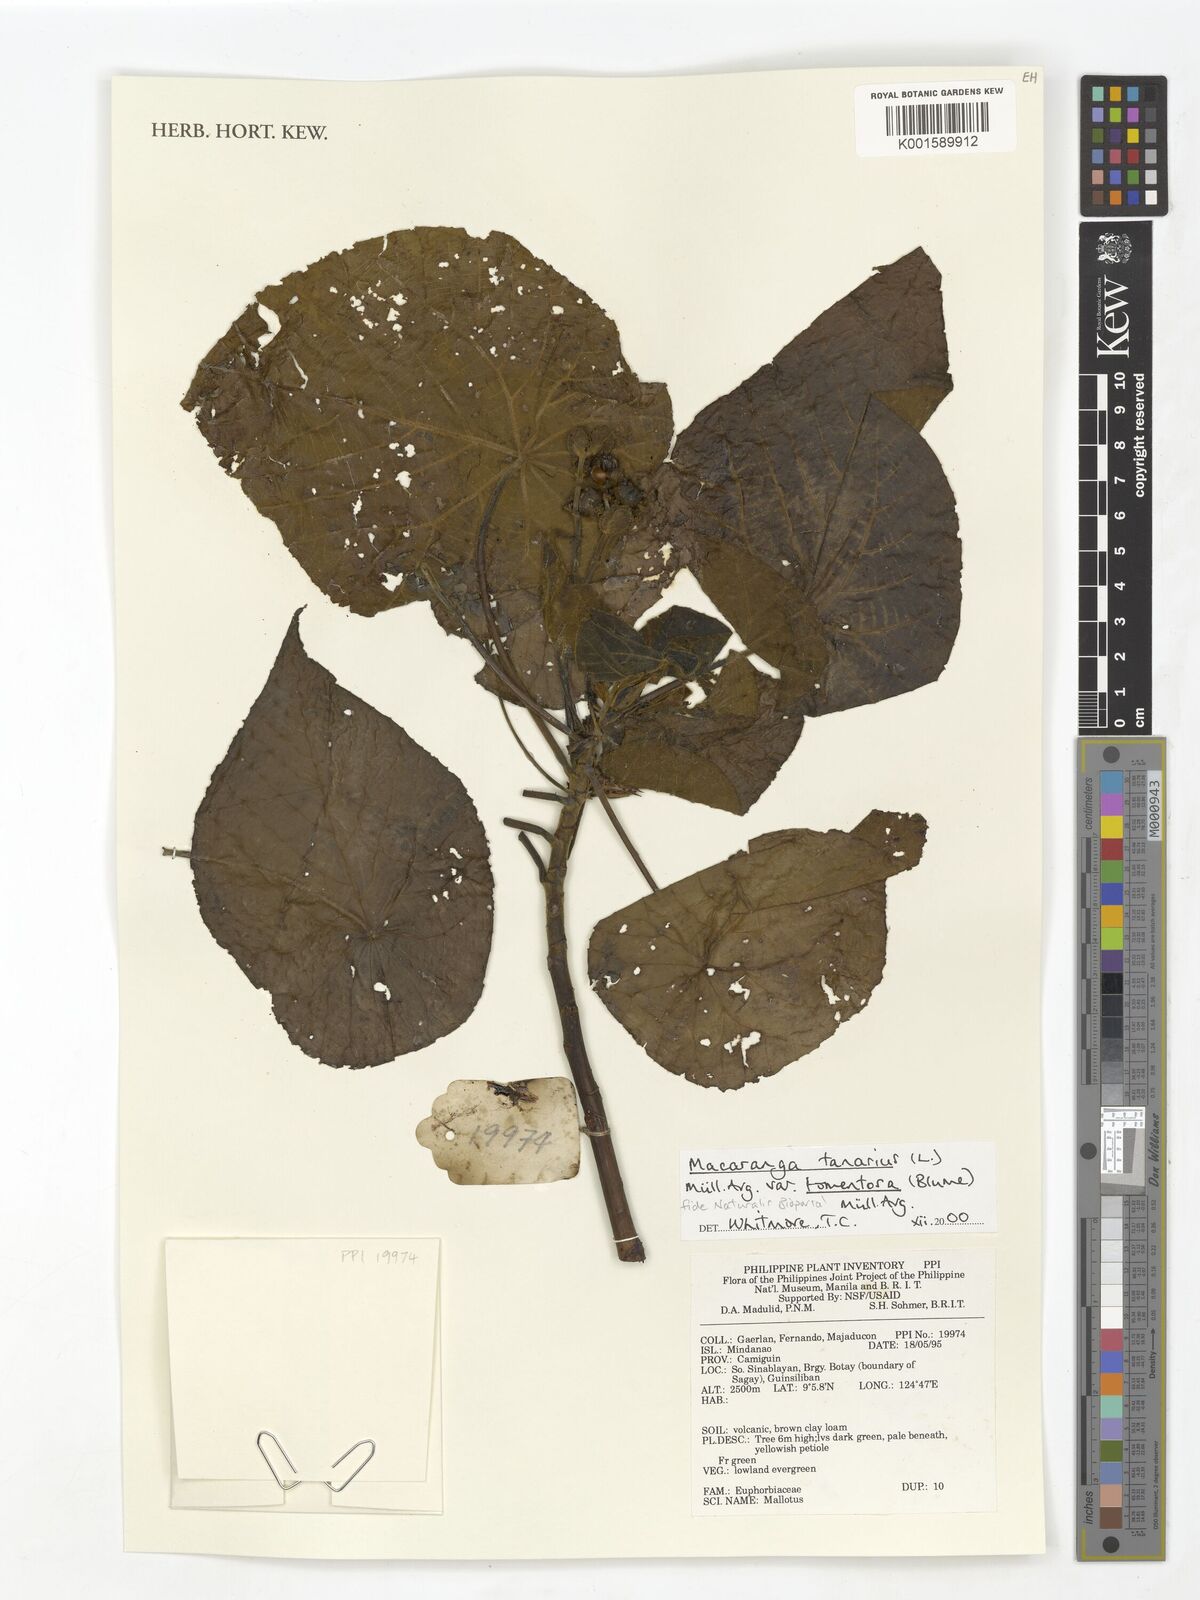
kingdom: Plantae
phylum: Tracheophyta
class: Magnoliopsida
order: Malpighiales
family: Euphorbiaceae
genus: Macaranga
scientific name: Macaranga tanarius
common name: Parasol leaf tree
